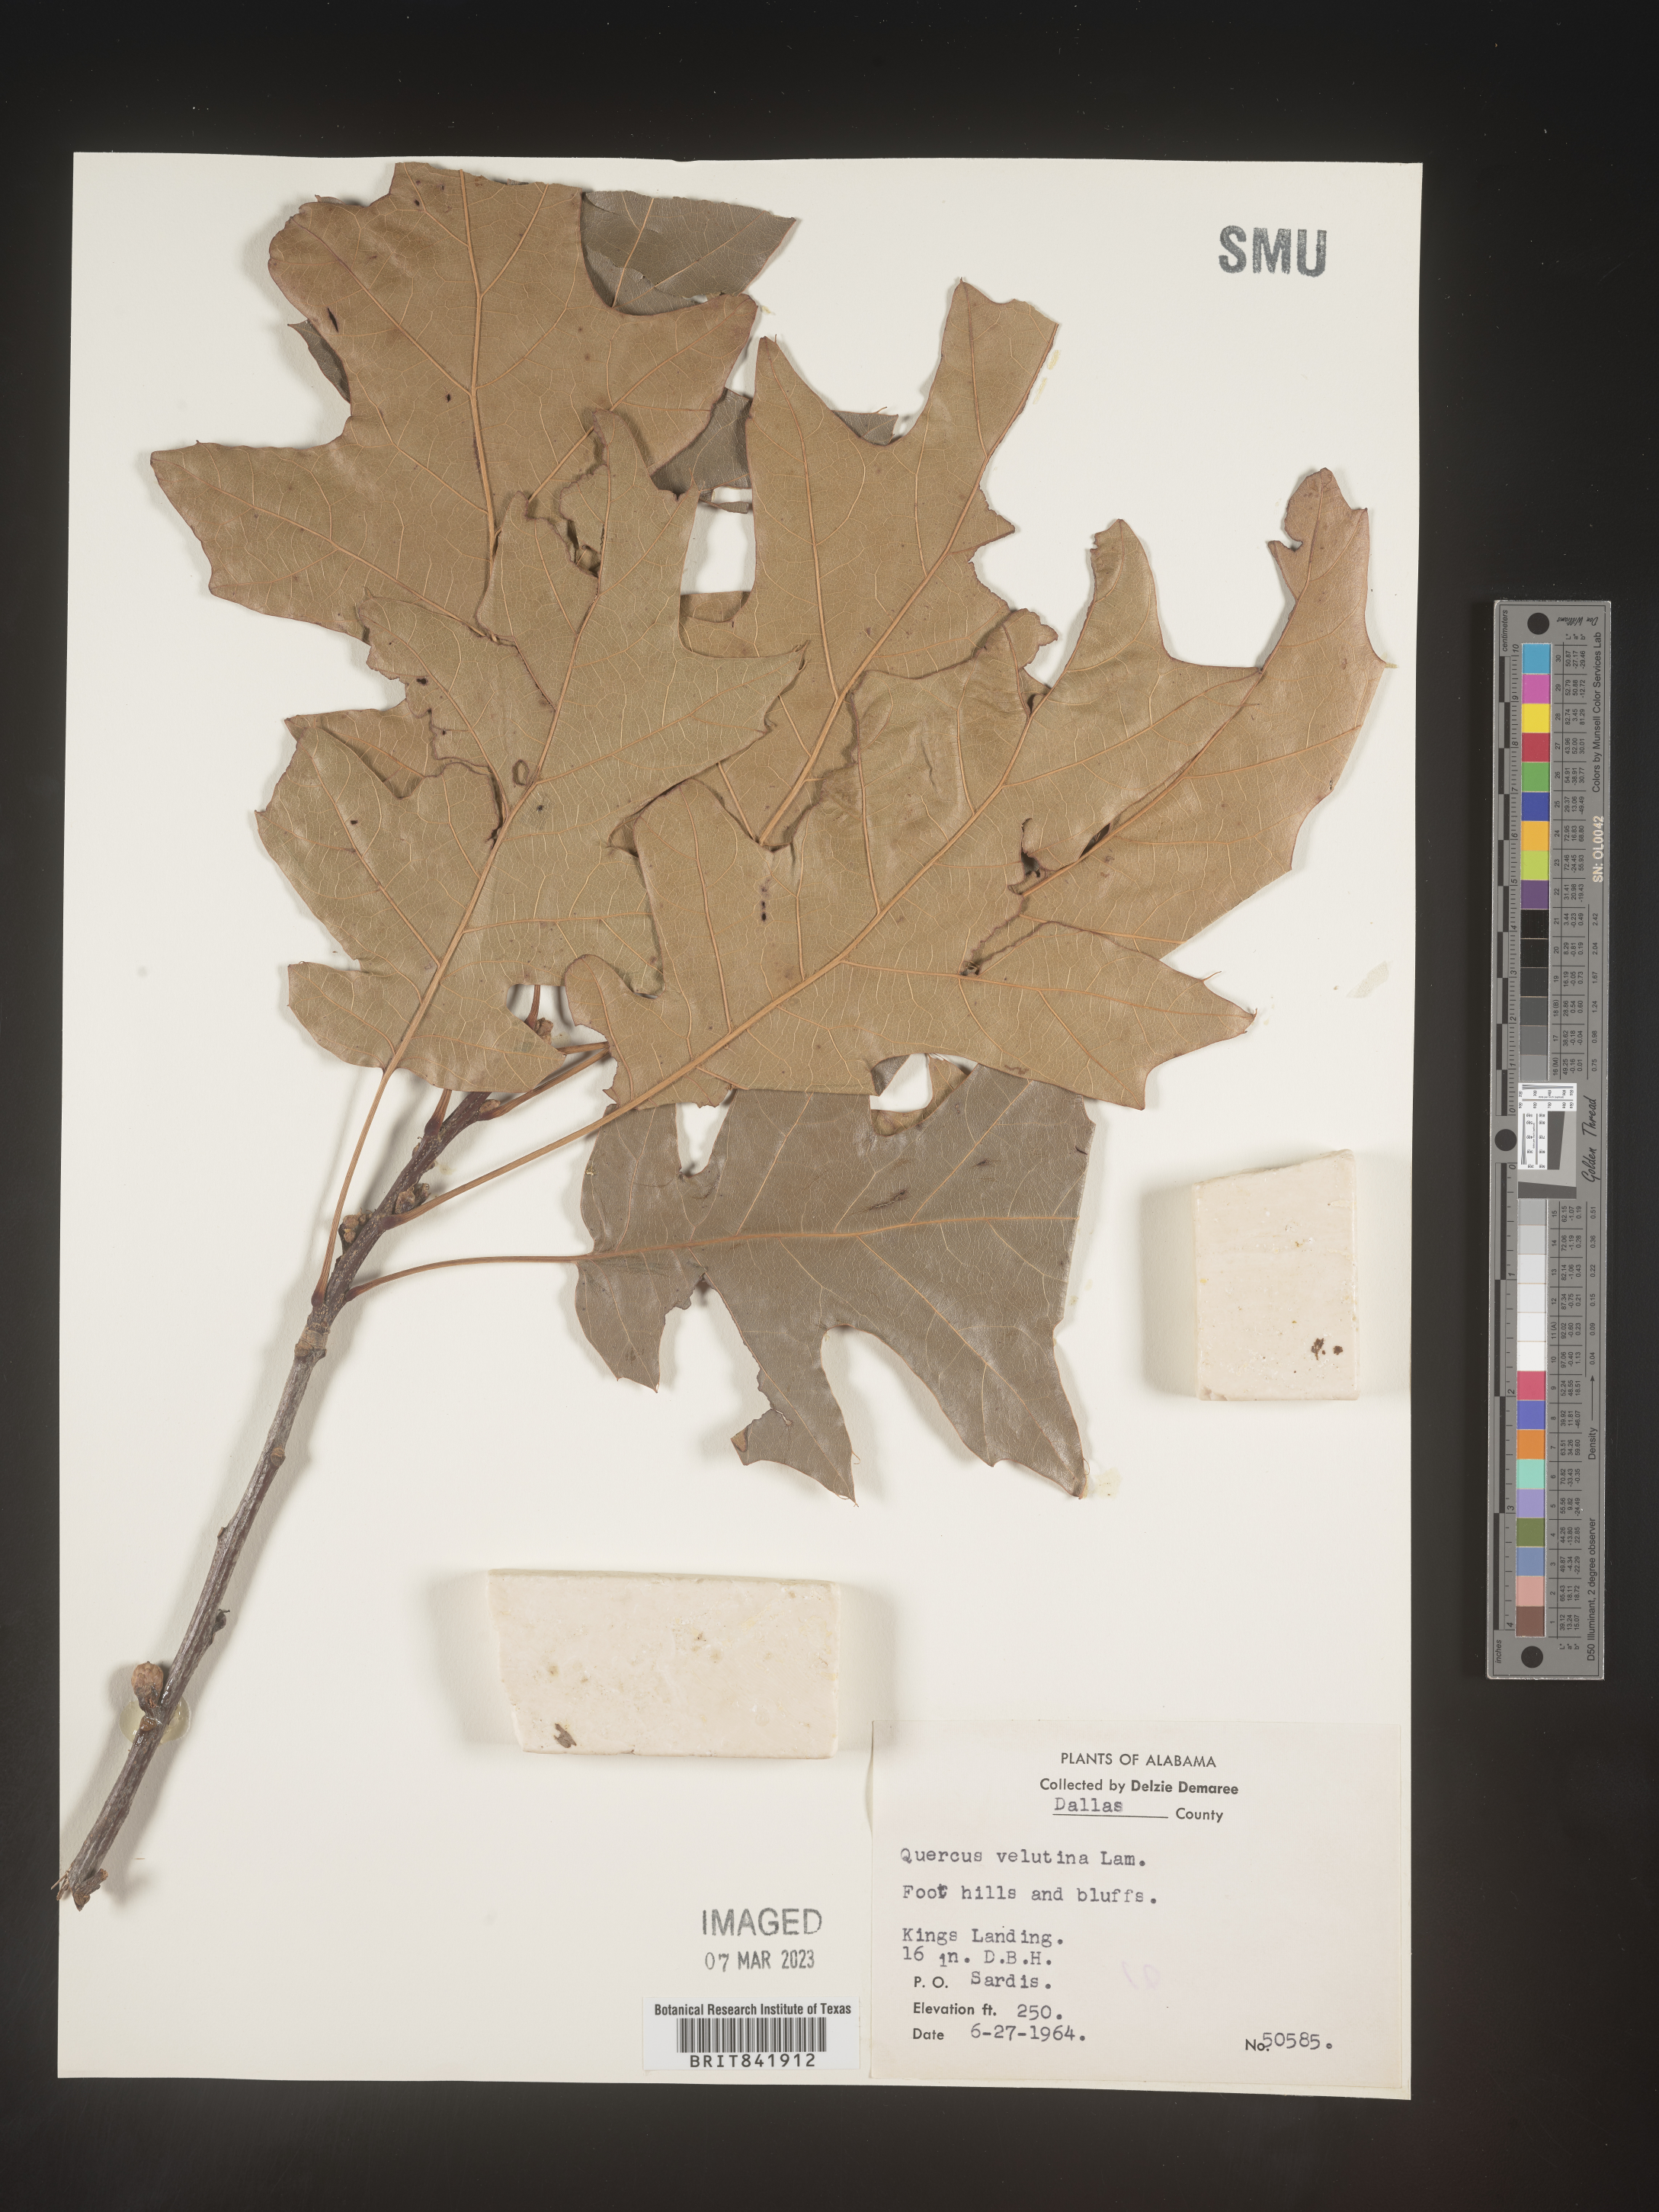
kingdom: Plantae
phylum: Tracheophyta
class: Magnoliopsida
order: Fagales
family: Fagaceae
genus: Quercus
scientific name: Quercus velutina
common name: Black oak
